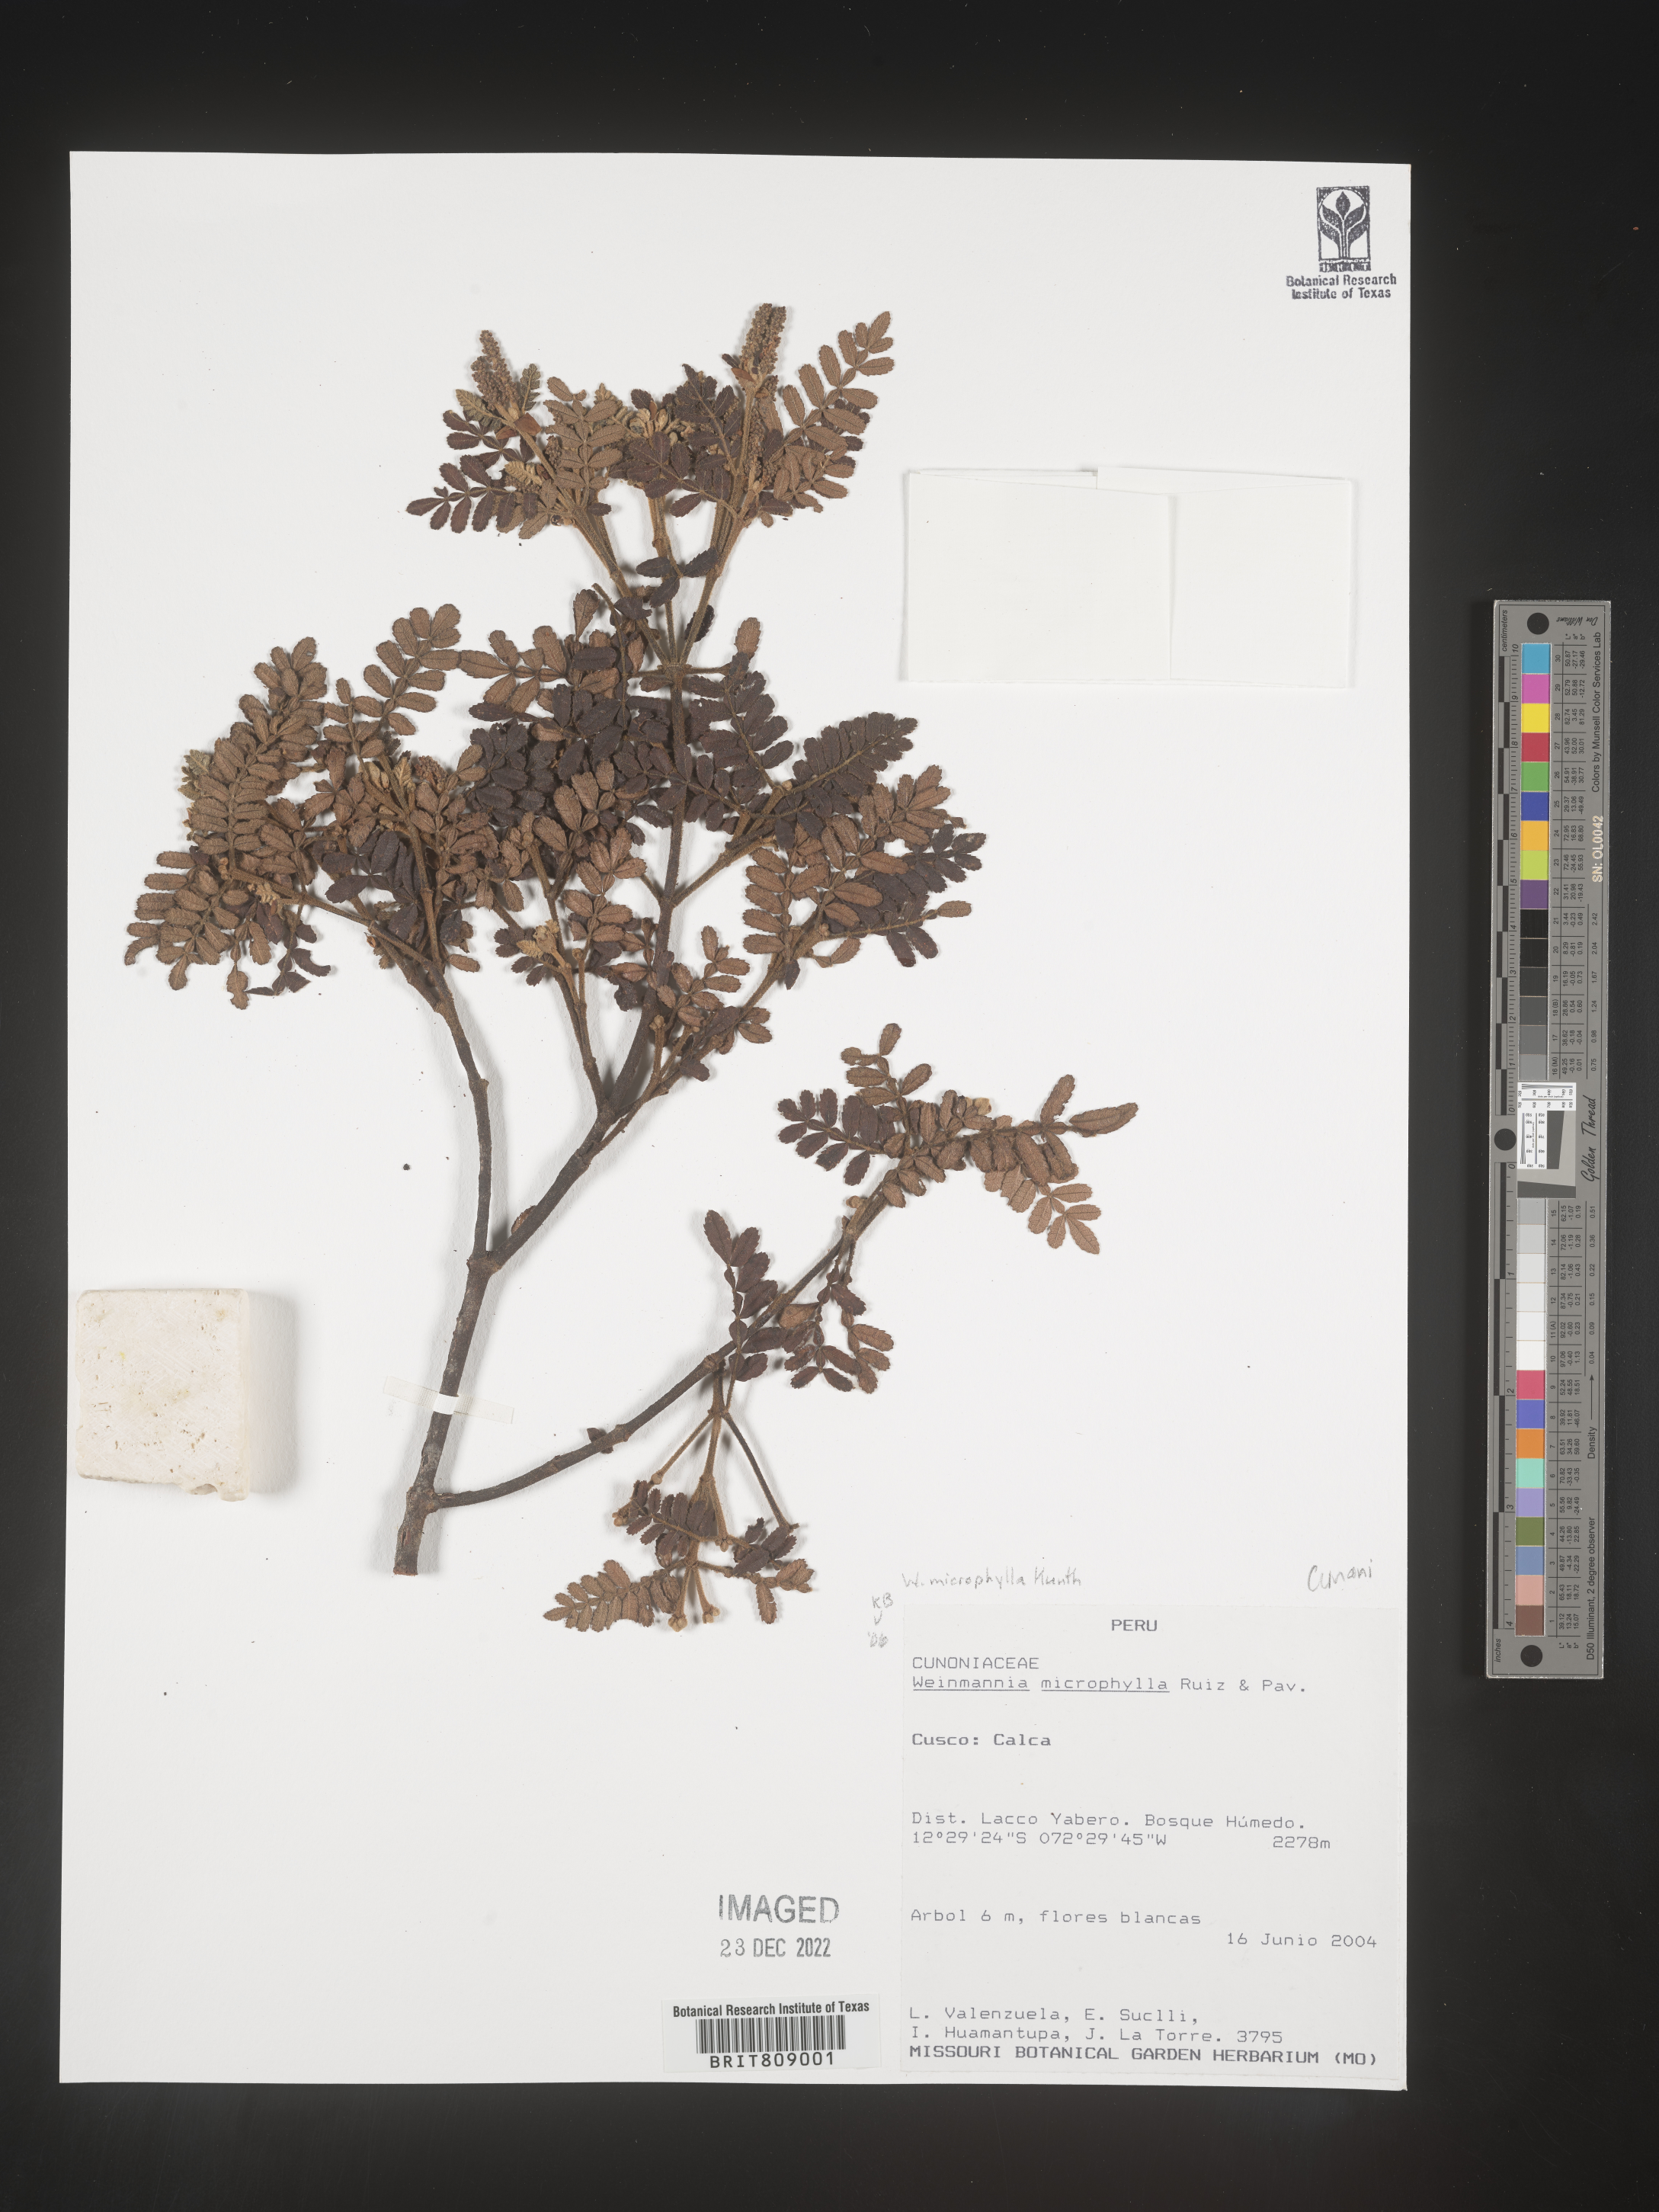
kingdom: Plantae
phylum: Tracheophyta
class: Magnoliopsida
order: Oxalidales
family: Cunoniaceae
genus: Weinmannia
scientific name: Weinmannia
